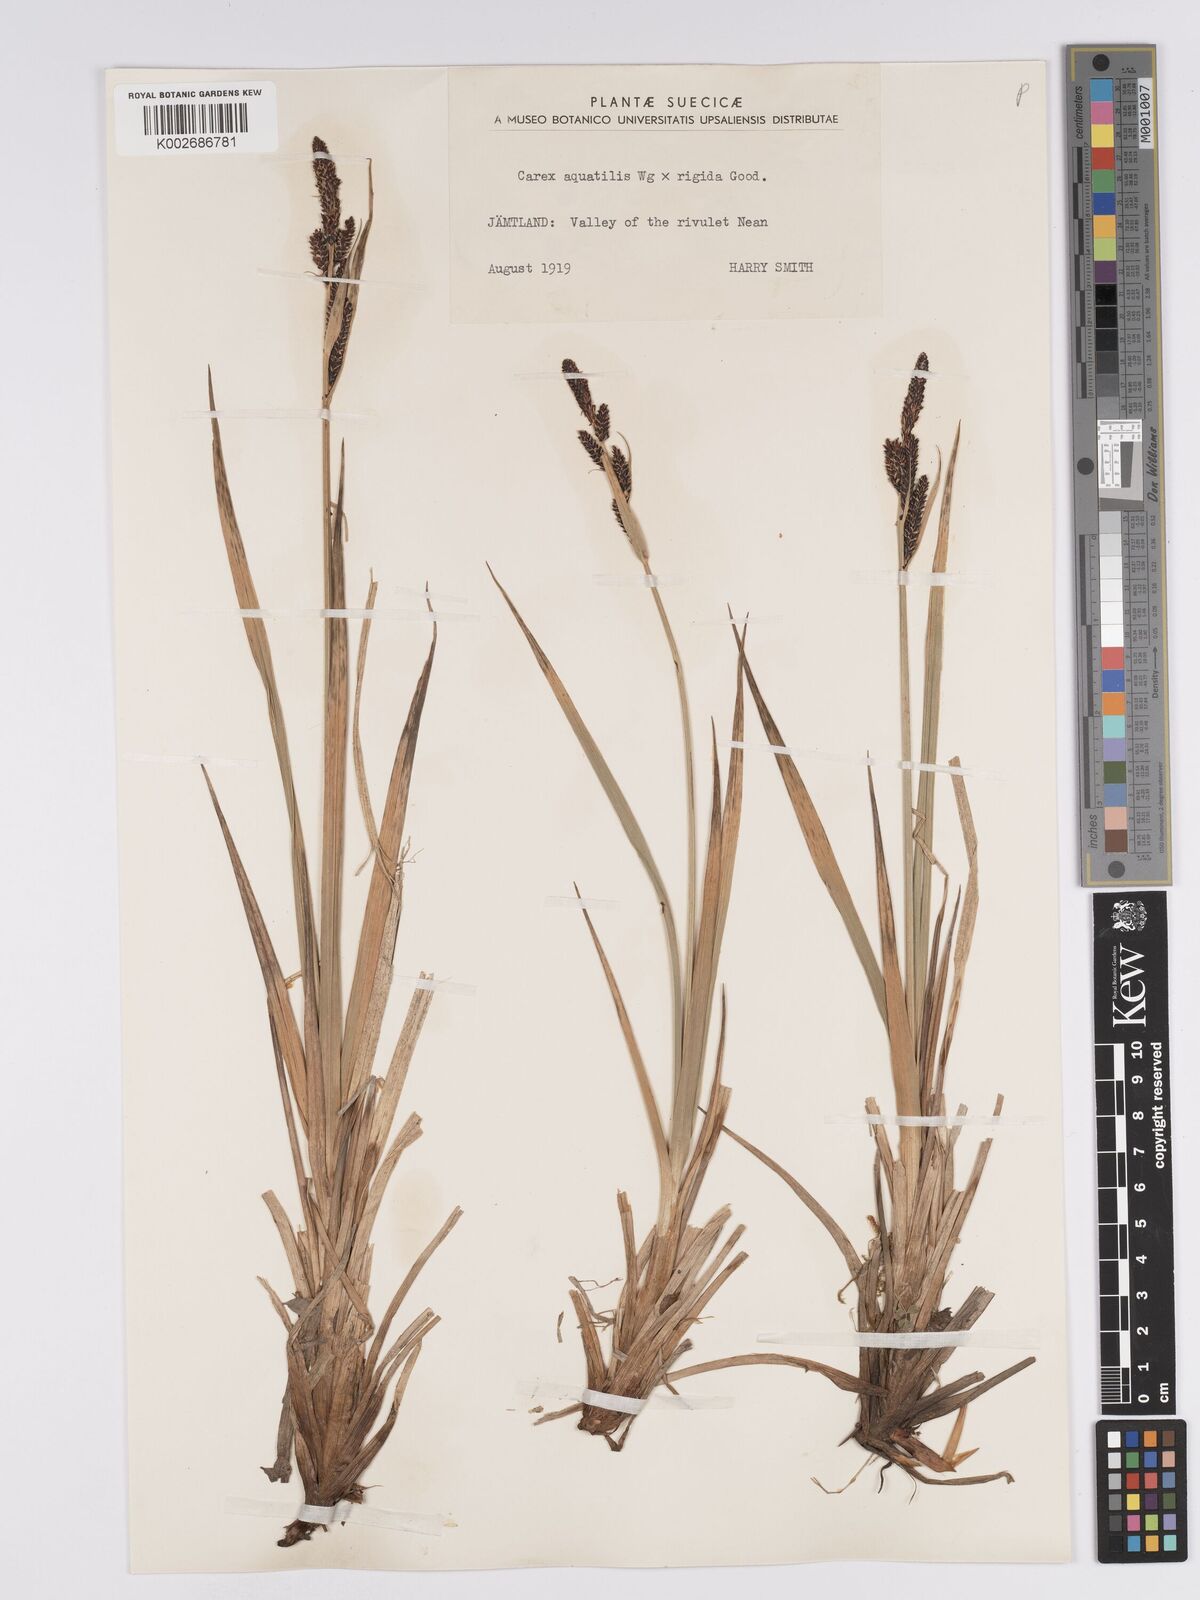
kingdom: Plantae
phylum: Tracheophyta
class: Liliopsida
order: Poales
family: Cyperaceae
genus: Carex
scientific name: Carex aquatilis
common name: Water sedge
